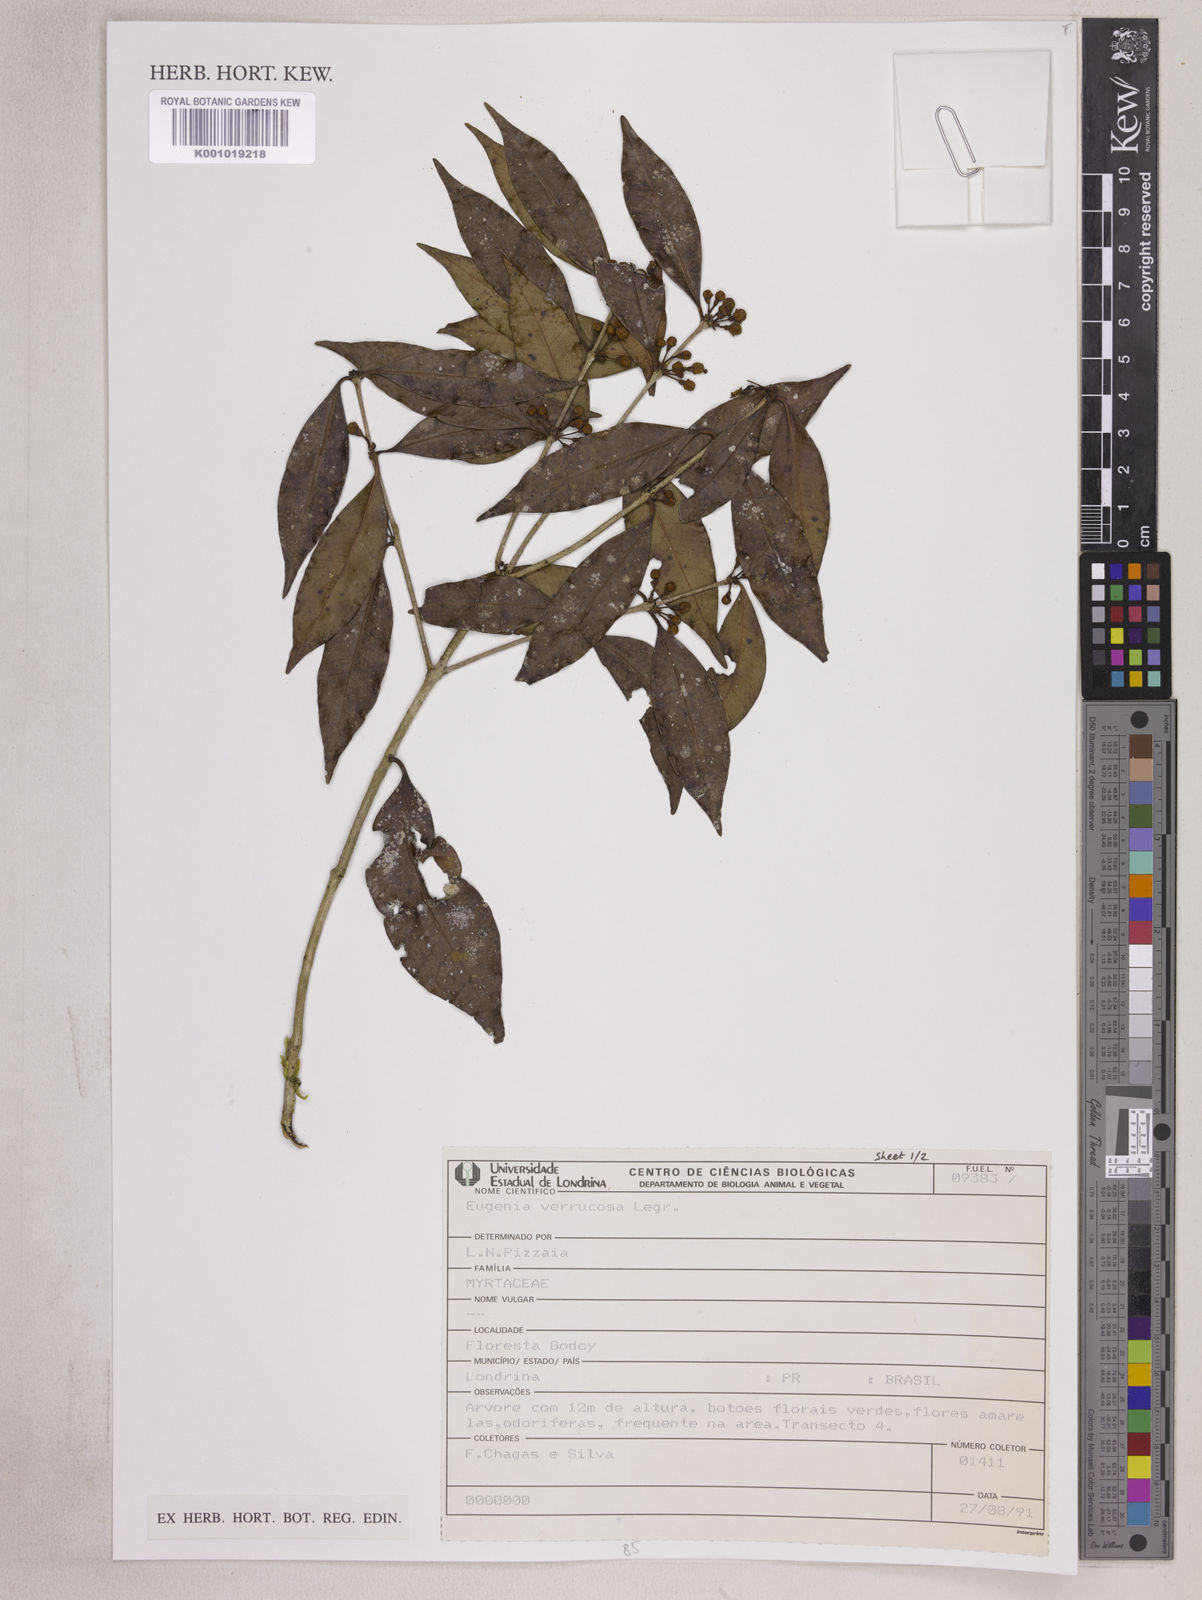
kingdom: Plantae
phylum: Tracheophyta
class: Magnoliopsida
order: Myrtales
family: Myrtaceae
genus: Eugenia
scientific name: Eugenia neoverrucosa
